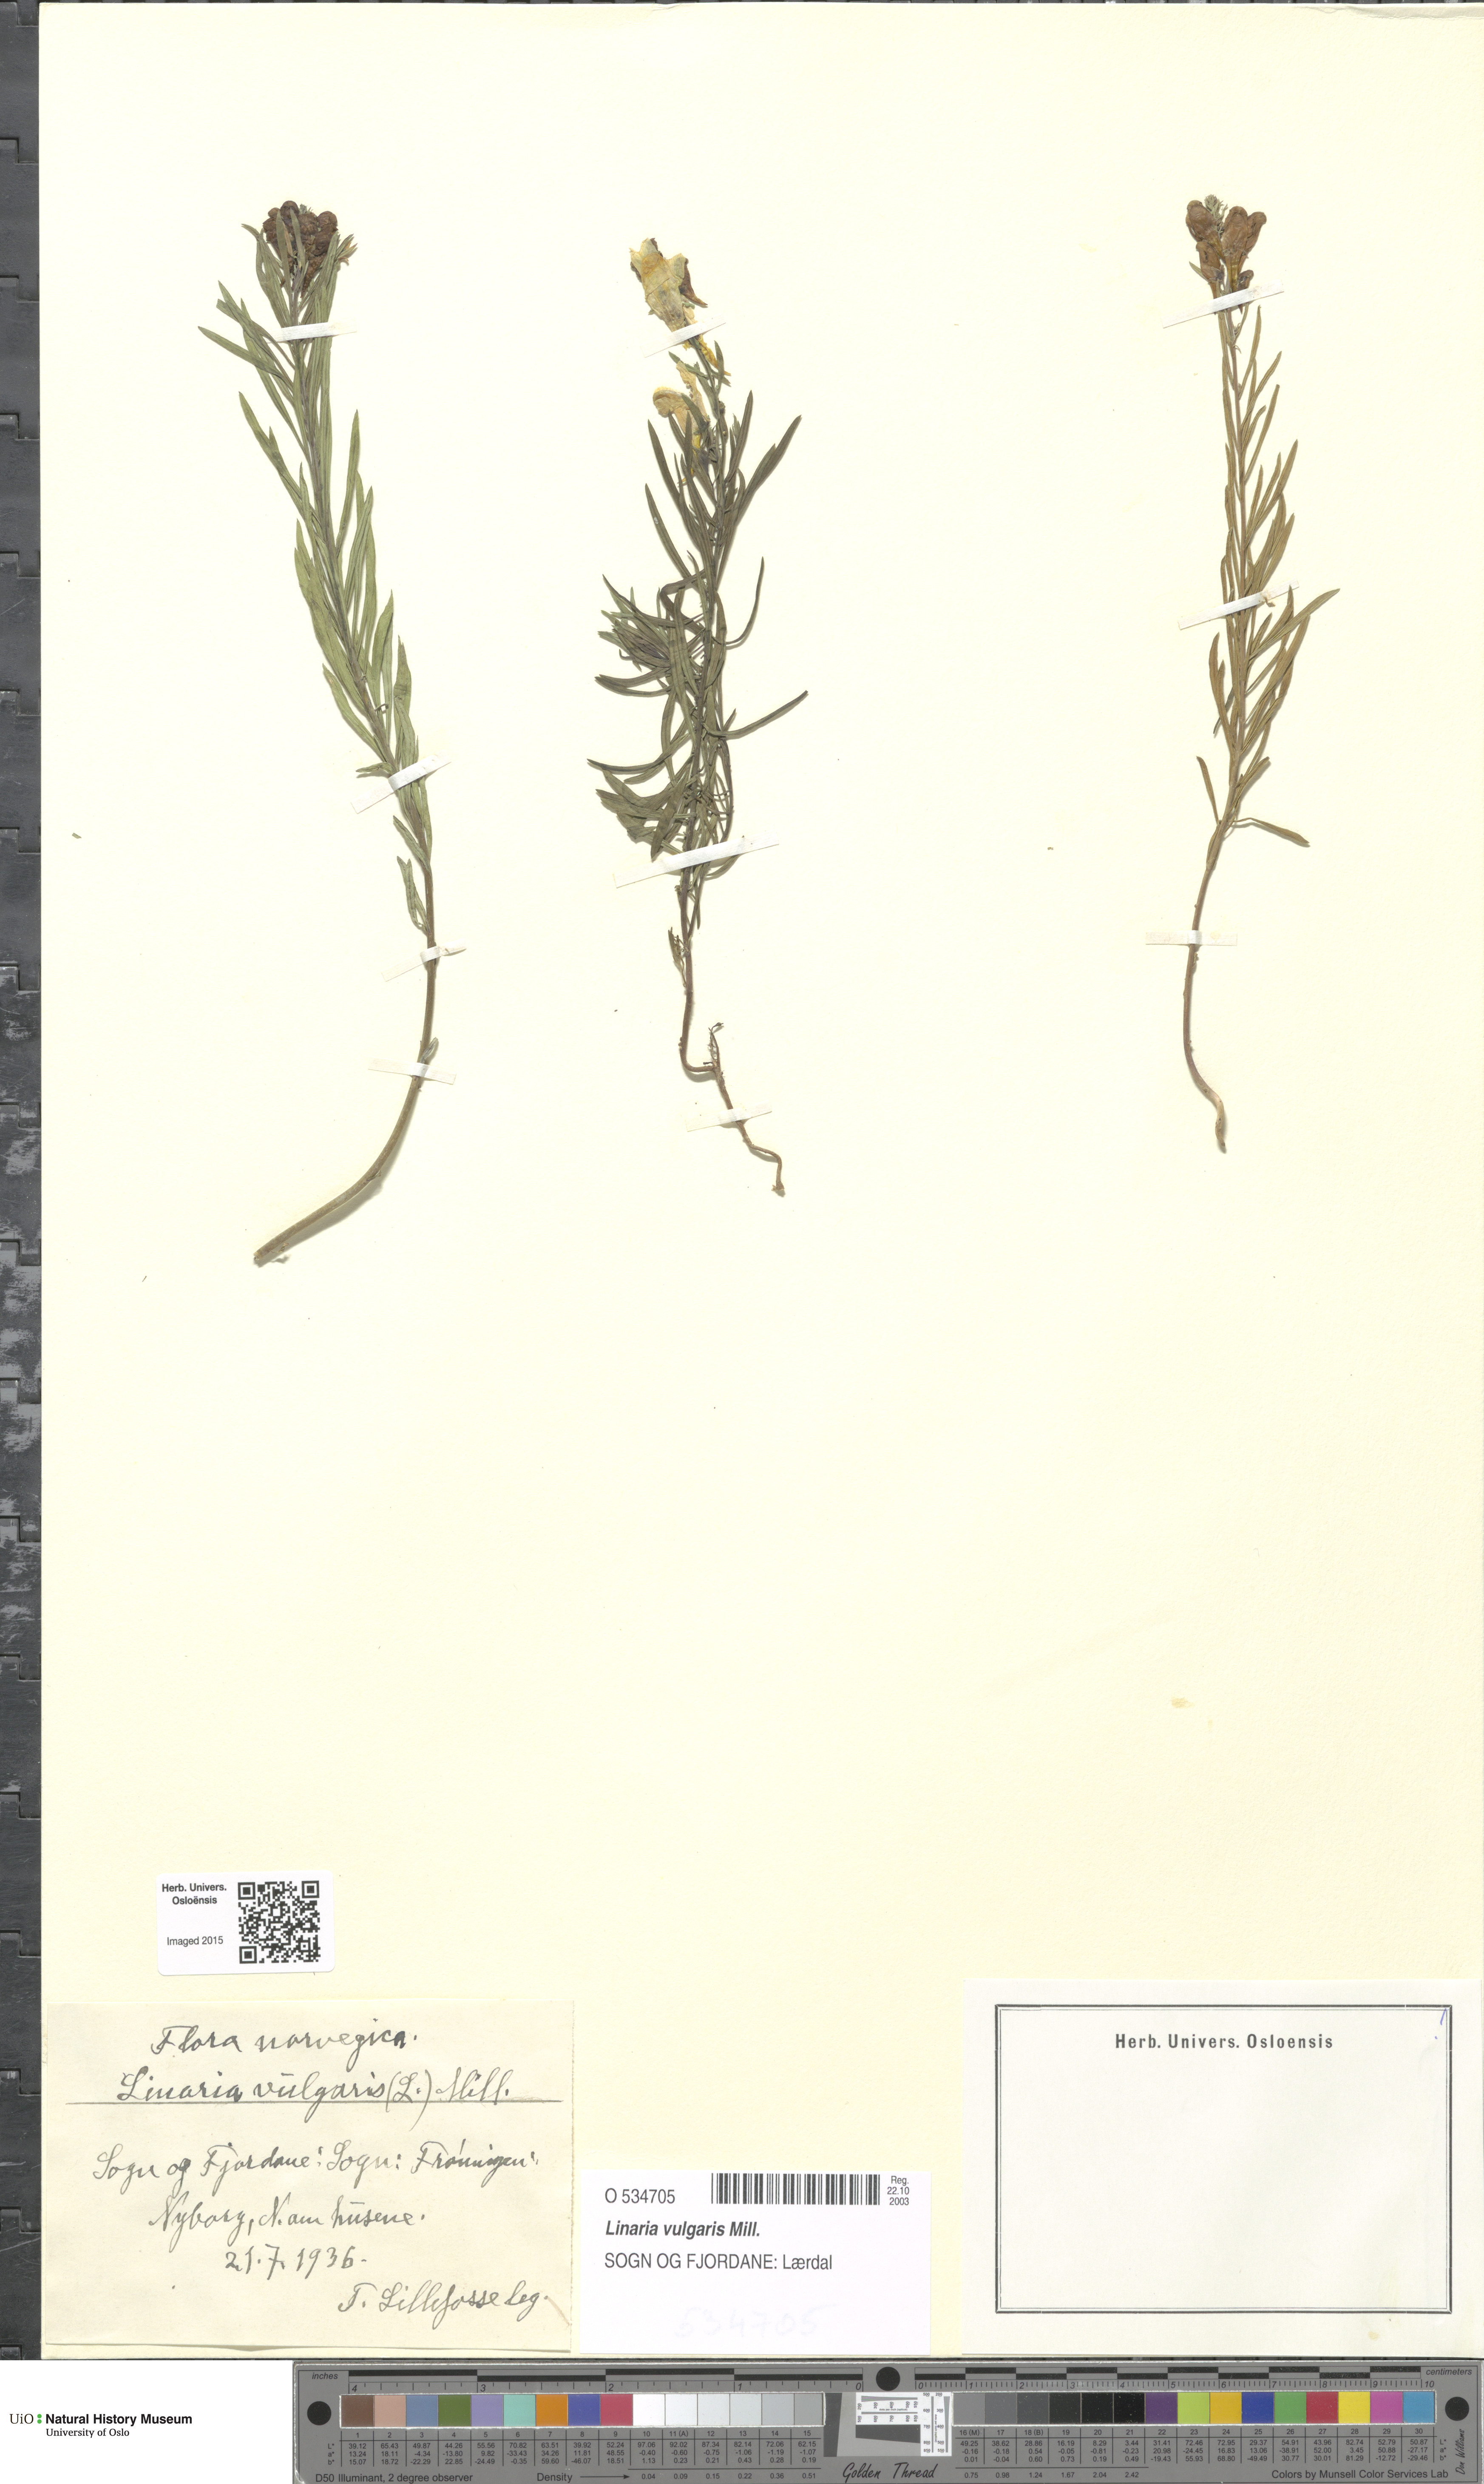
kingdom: Plantae
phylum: Tracheophyta
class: Magnoliopsida
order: Lamiales
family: Plantaginaceae
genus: Linaria
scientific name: Linaria vulgaris
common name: Butter and eggs
